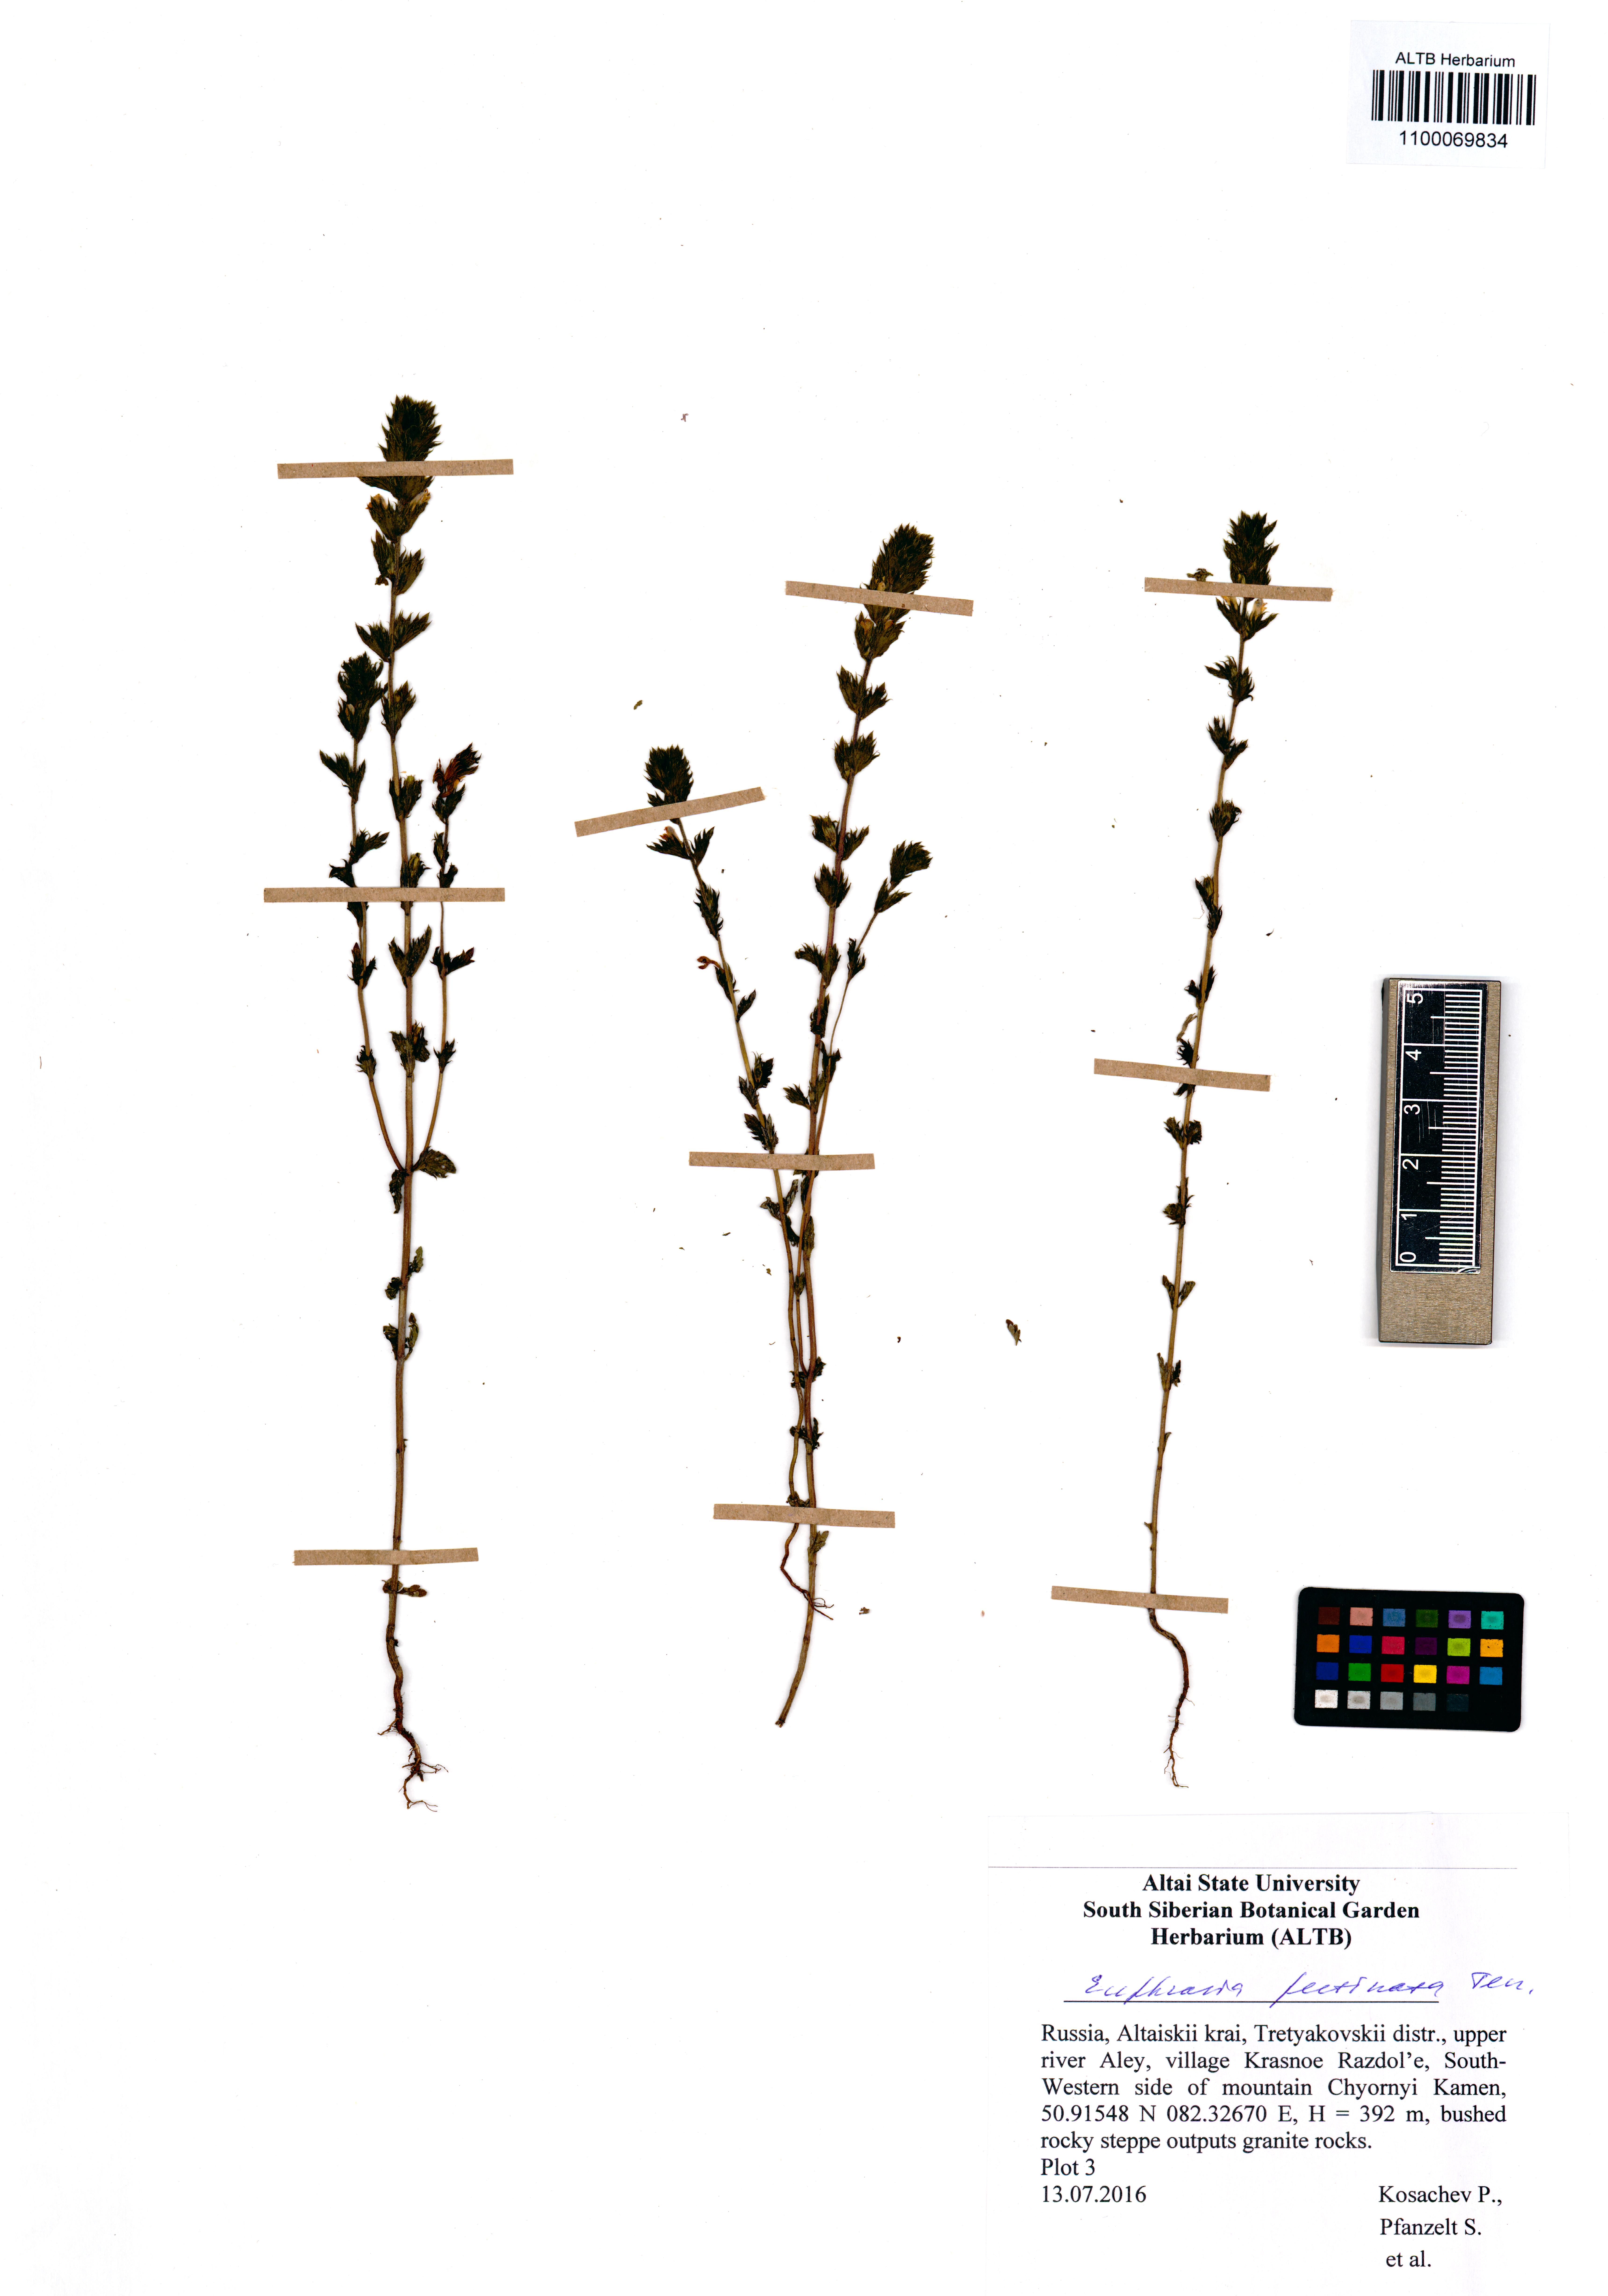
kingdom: Plantae
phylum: Tracheophyta
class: Magnoliopsida
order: Lamiales
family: Orobanchaceae
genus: Euphrasia
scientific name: Euphrasia pectinata
